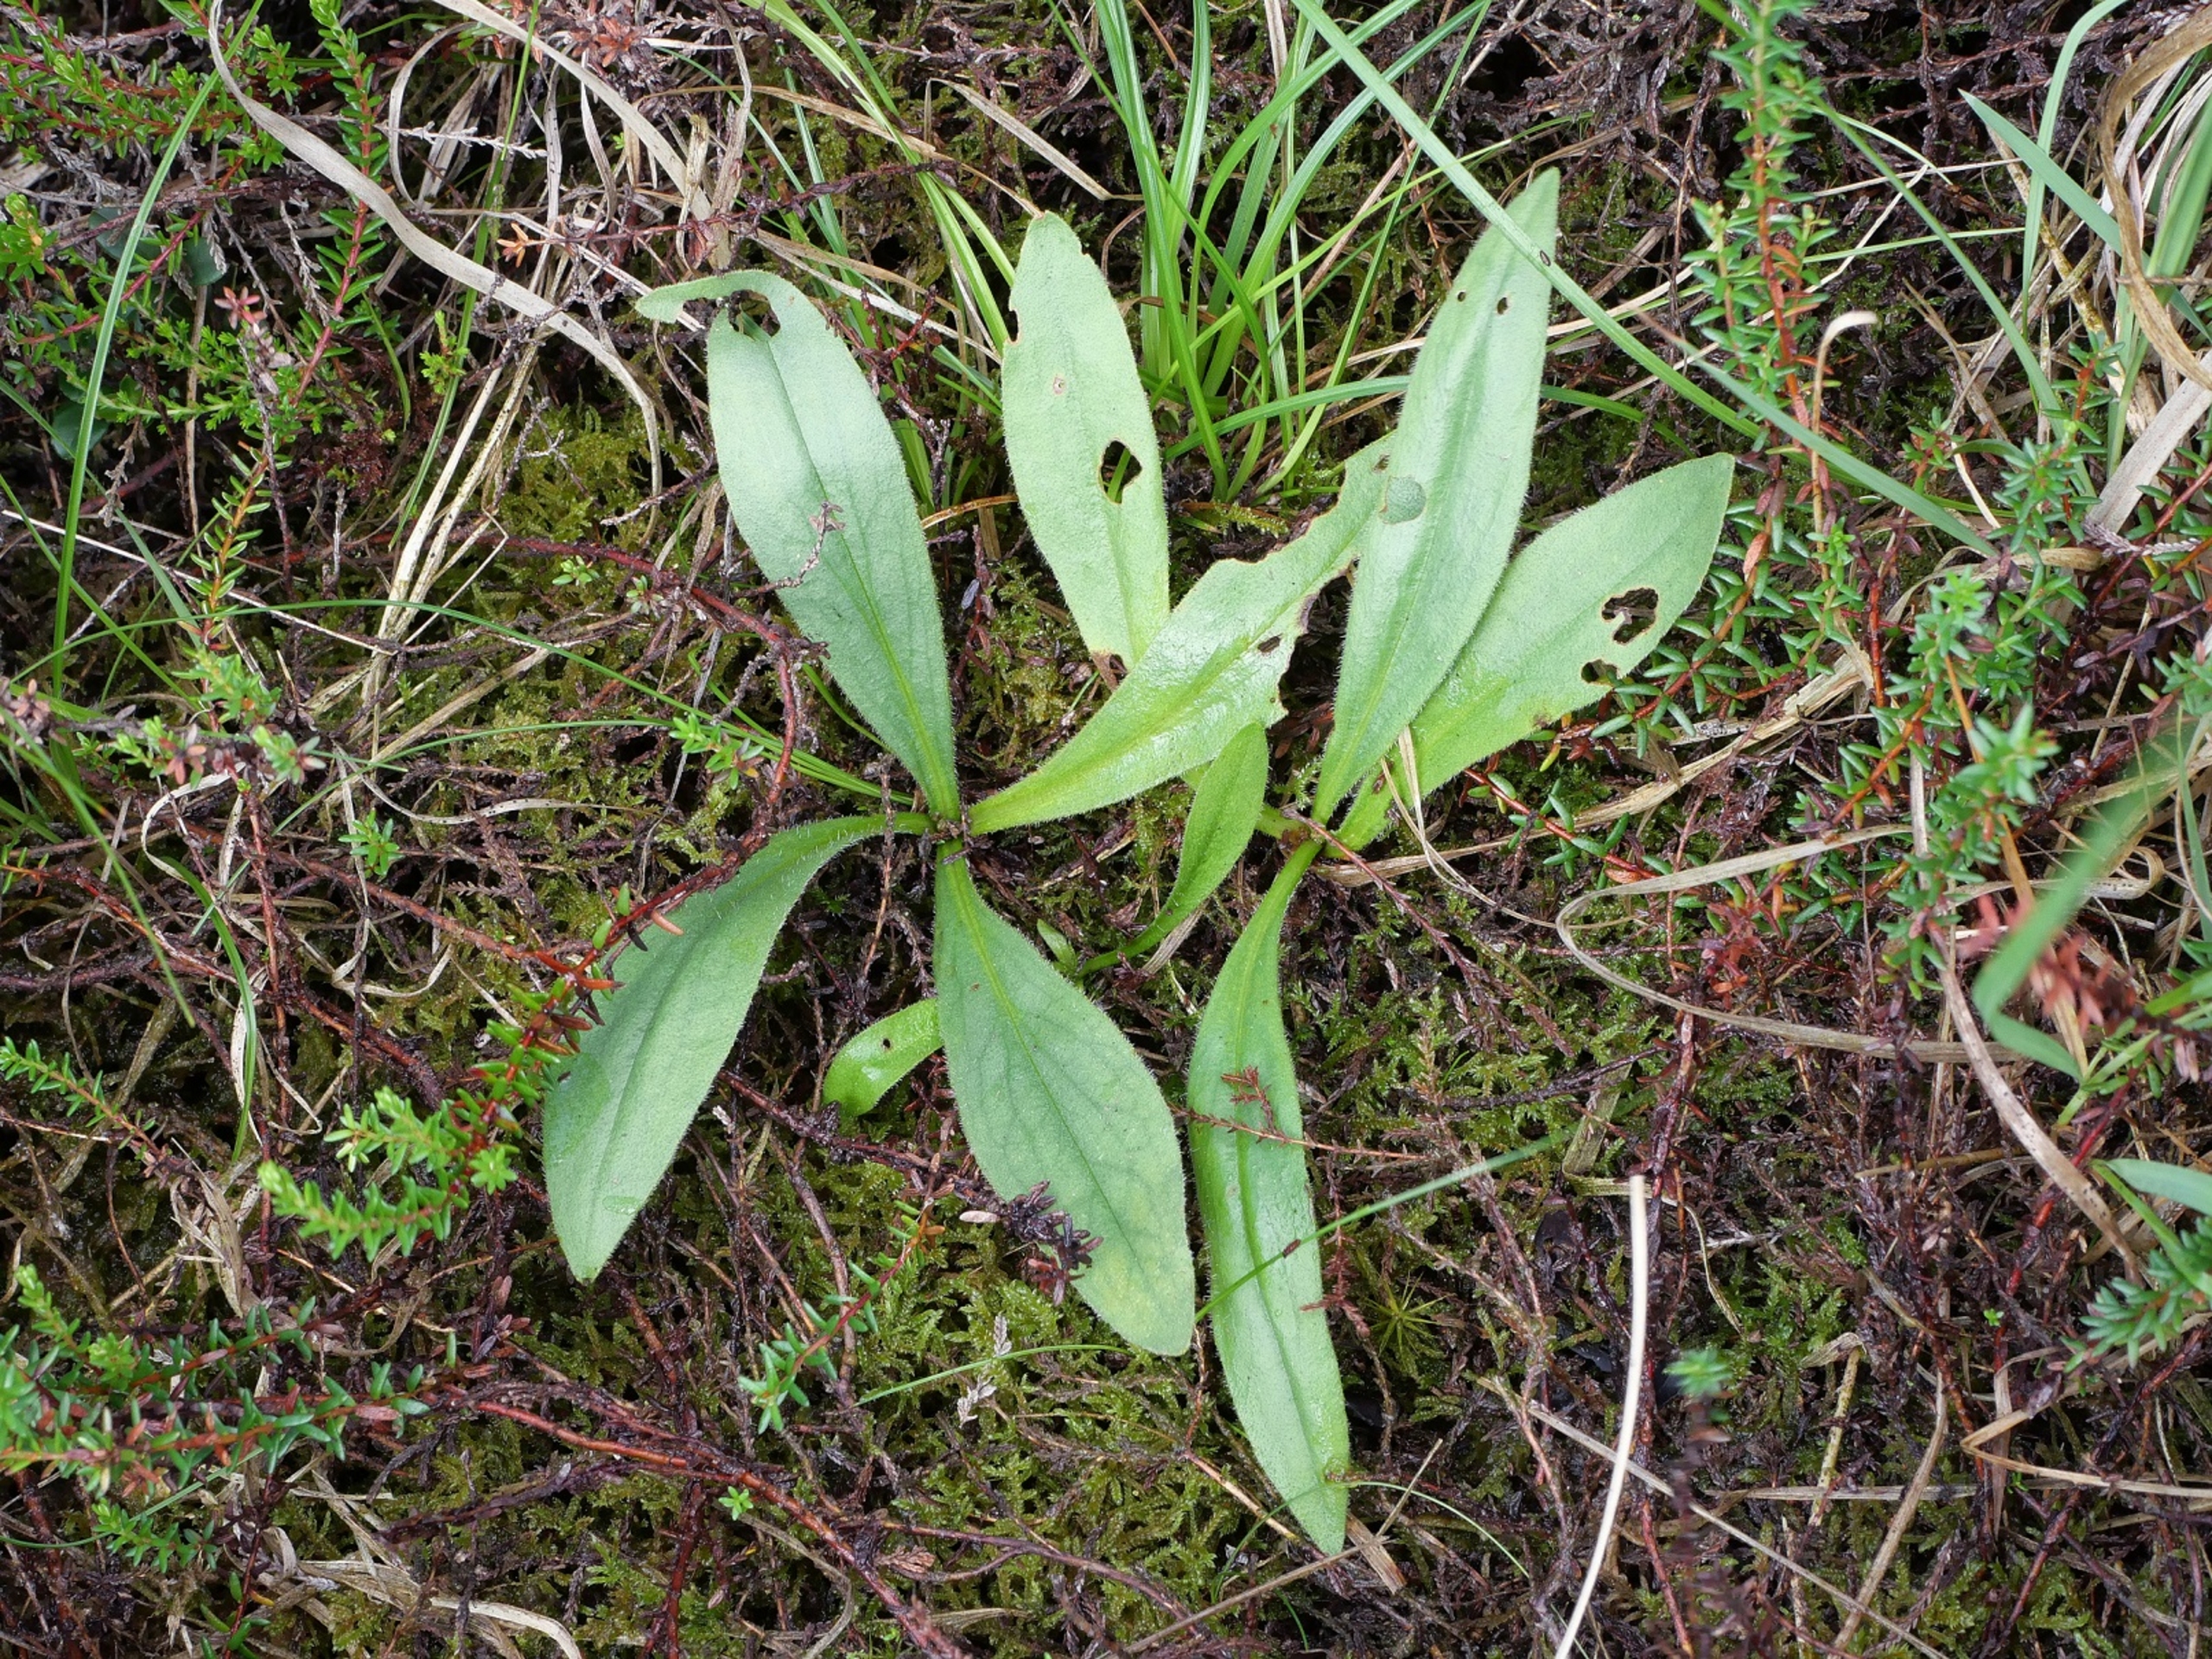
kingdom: Plantae
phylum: Tracheophyta
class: Magnoliopsida
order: Asterales
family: Asteraceae
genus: Arnica
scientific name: Arnica montana
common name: Guldblomme
